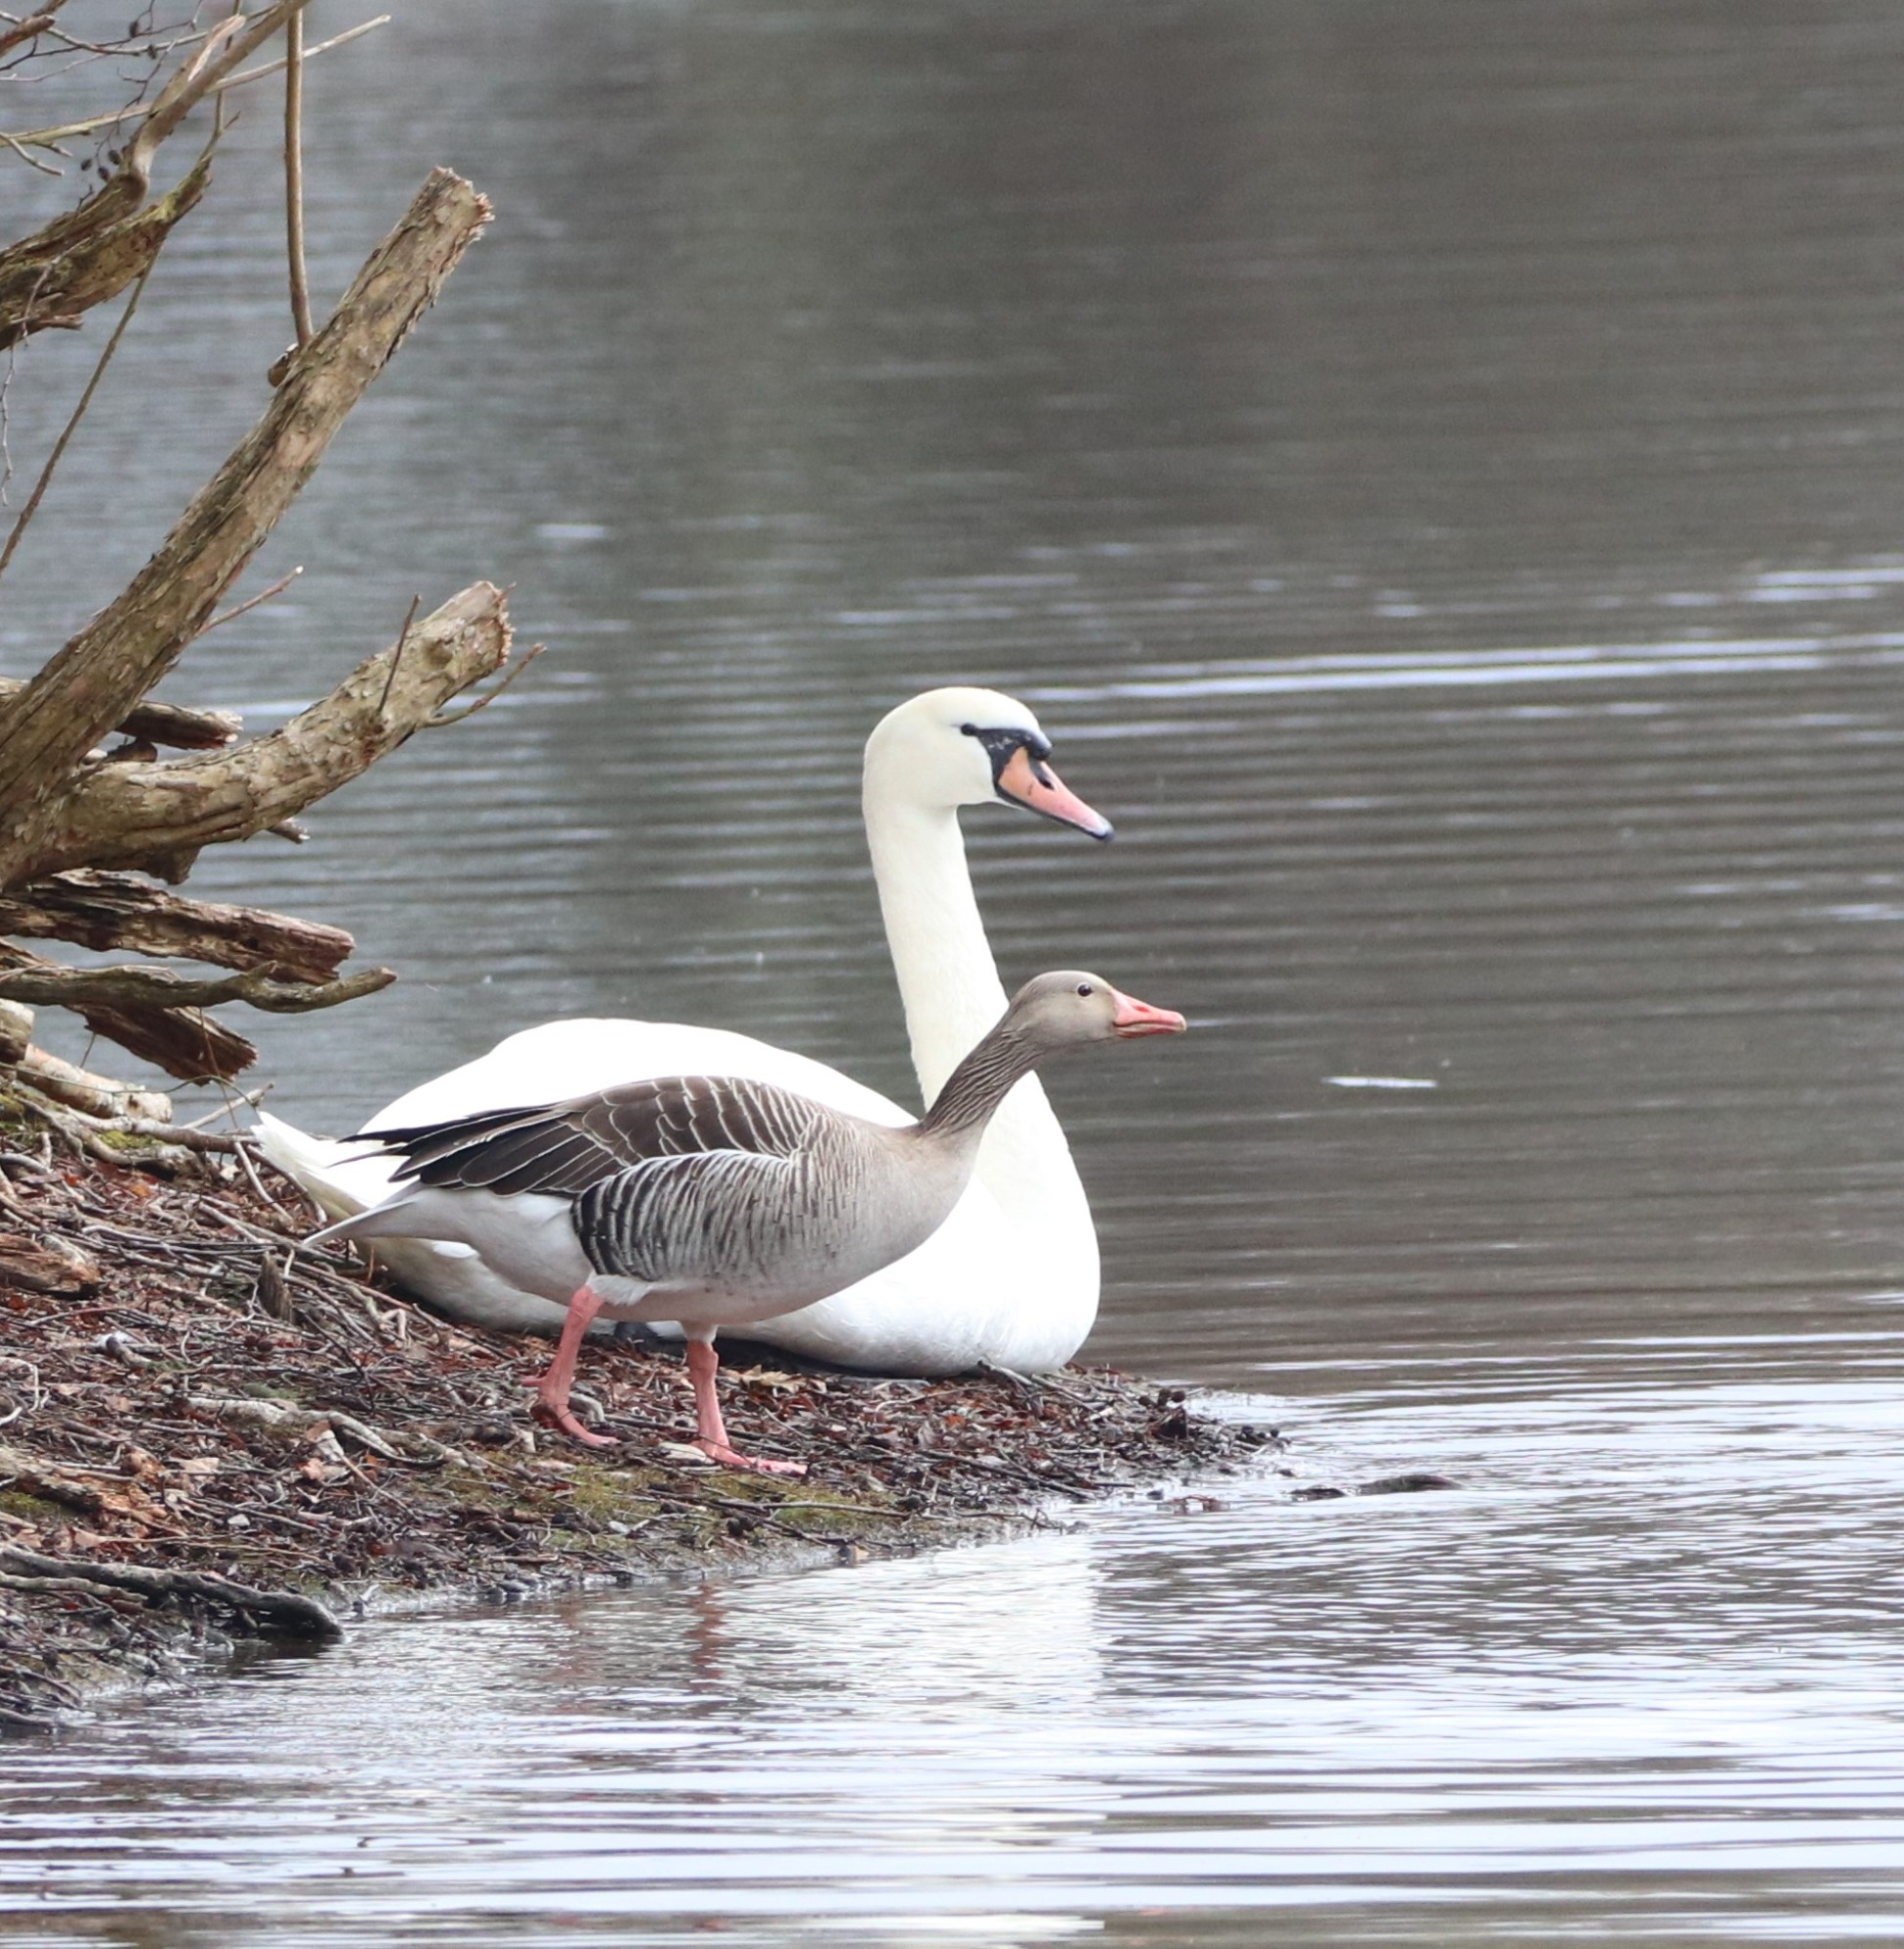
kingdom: Animalia
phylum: Chordata
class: Aves
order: Anseriformes
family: Anatidae
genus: Anser
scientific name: Anser anser
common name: Grågås
